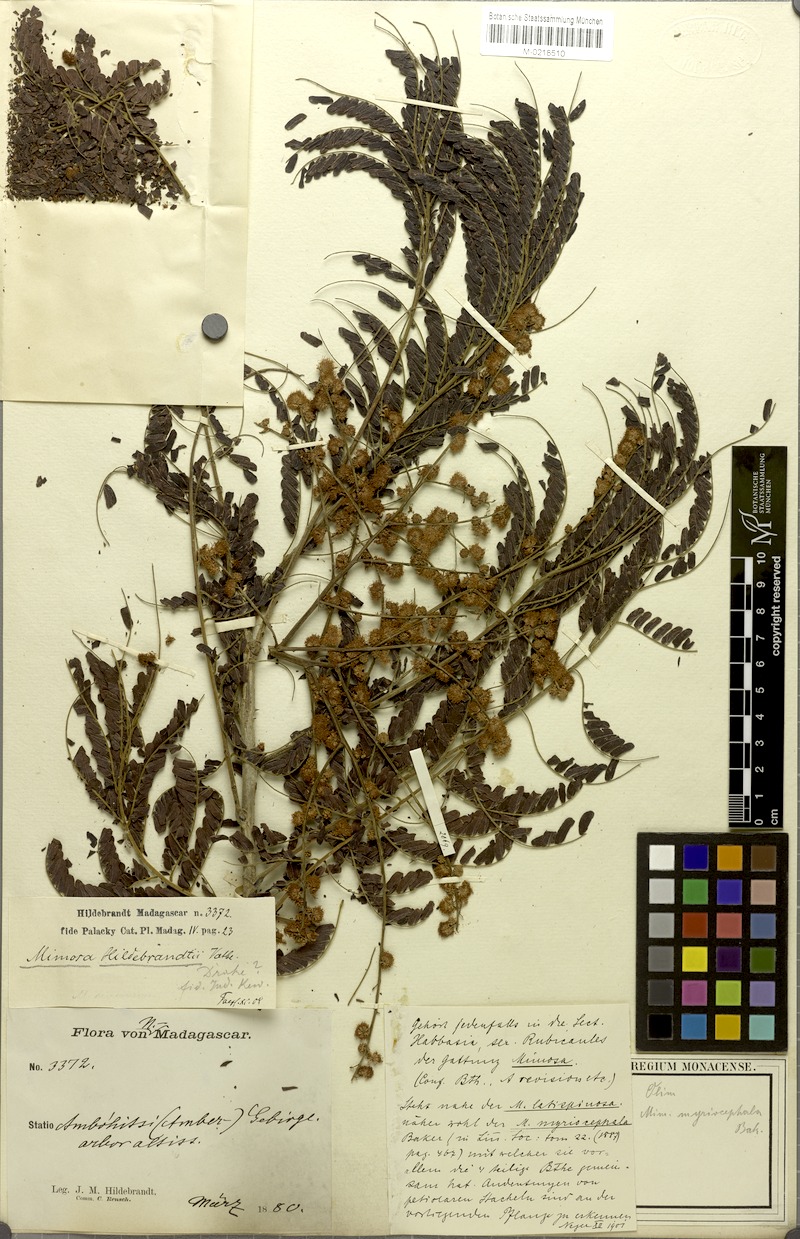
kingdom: Plantae
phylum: Tracheophyta
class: Magnoliopsida
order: Fabales
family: Fabaceae
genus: Mimosa
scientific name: Mimosa hildebrandtii
